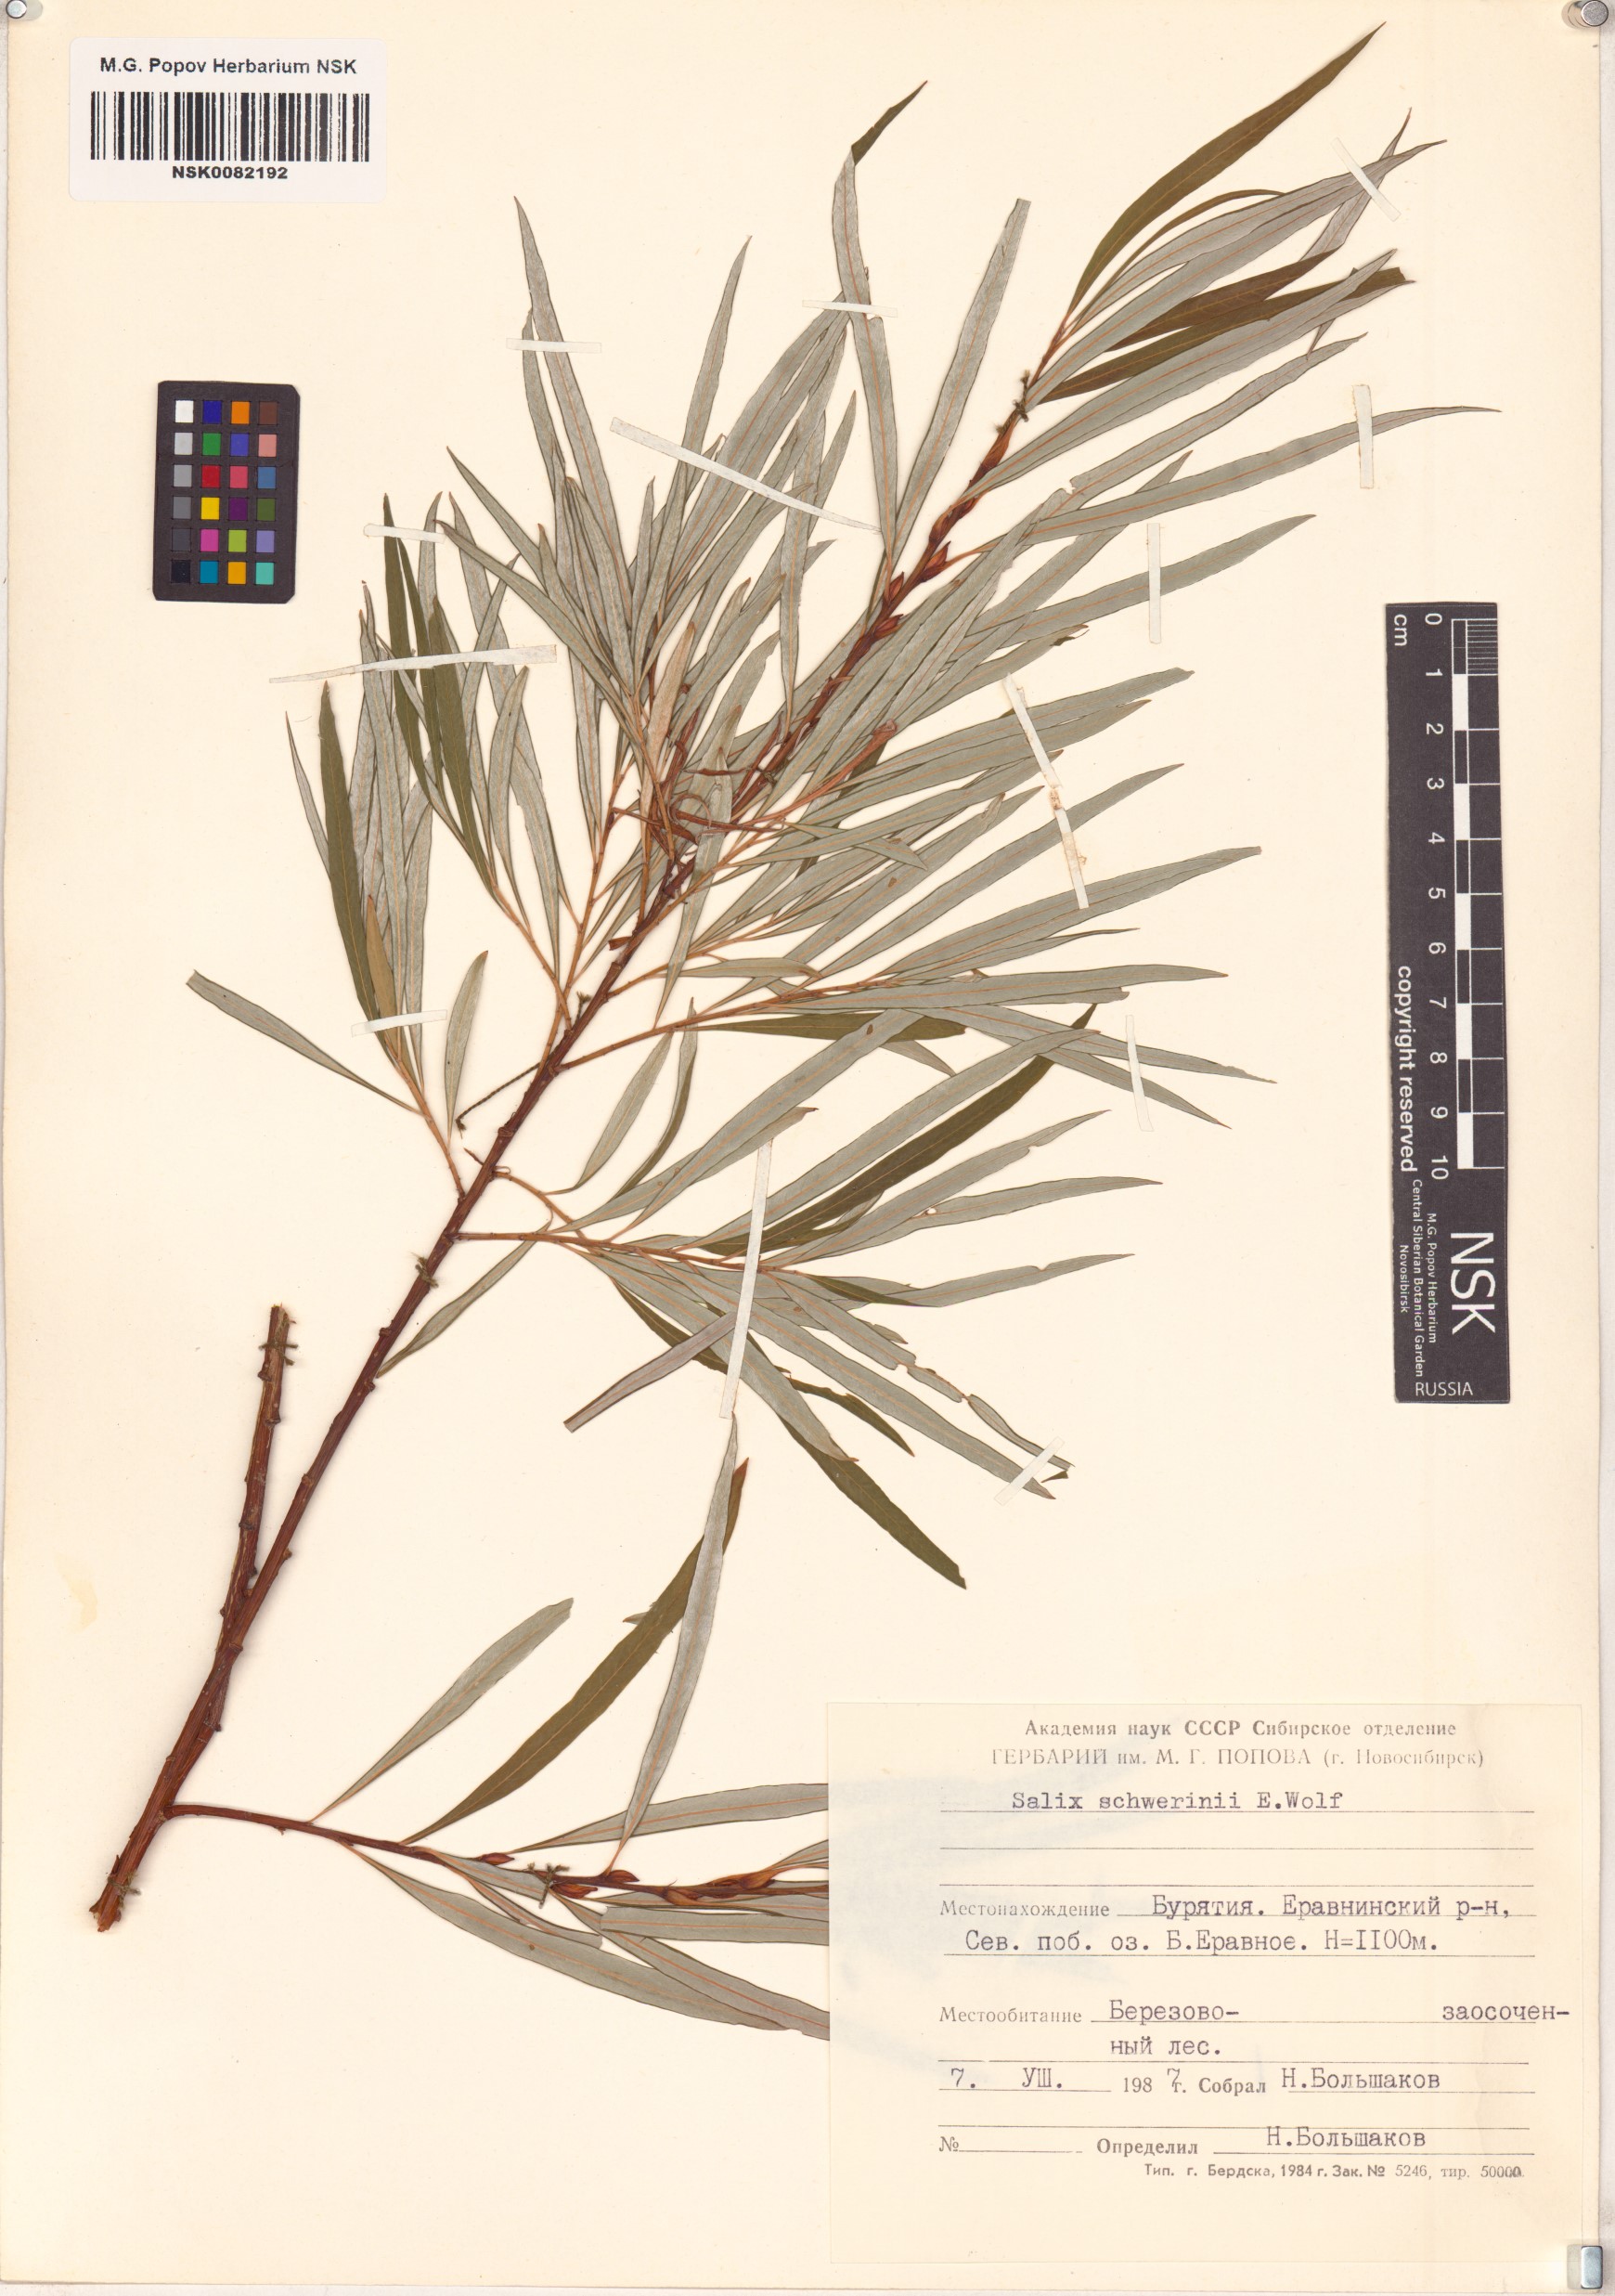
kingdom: Plantae
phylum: Tracheophyta
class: Magnoliopsida
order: Malpighiales
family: Salicaceae
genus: Salix
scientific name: Salix schwerinii
